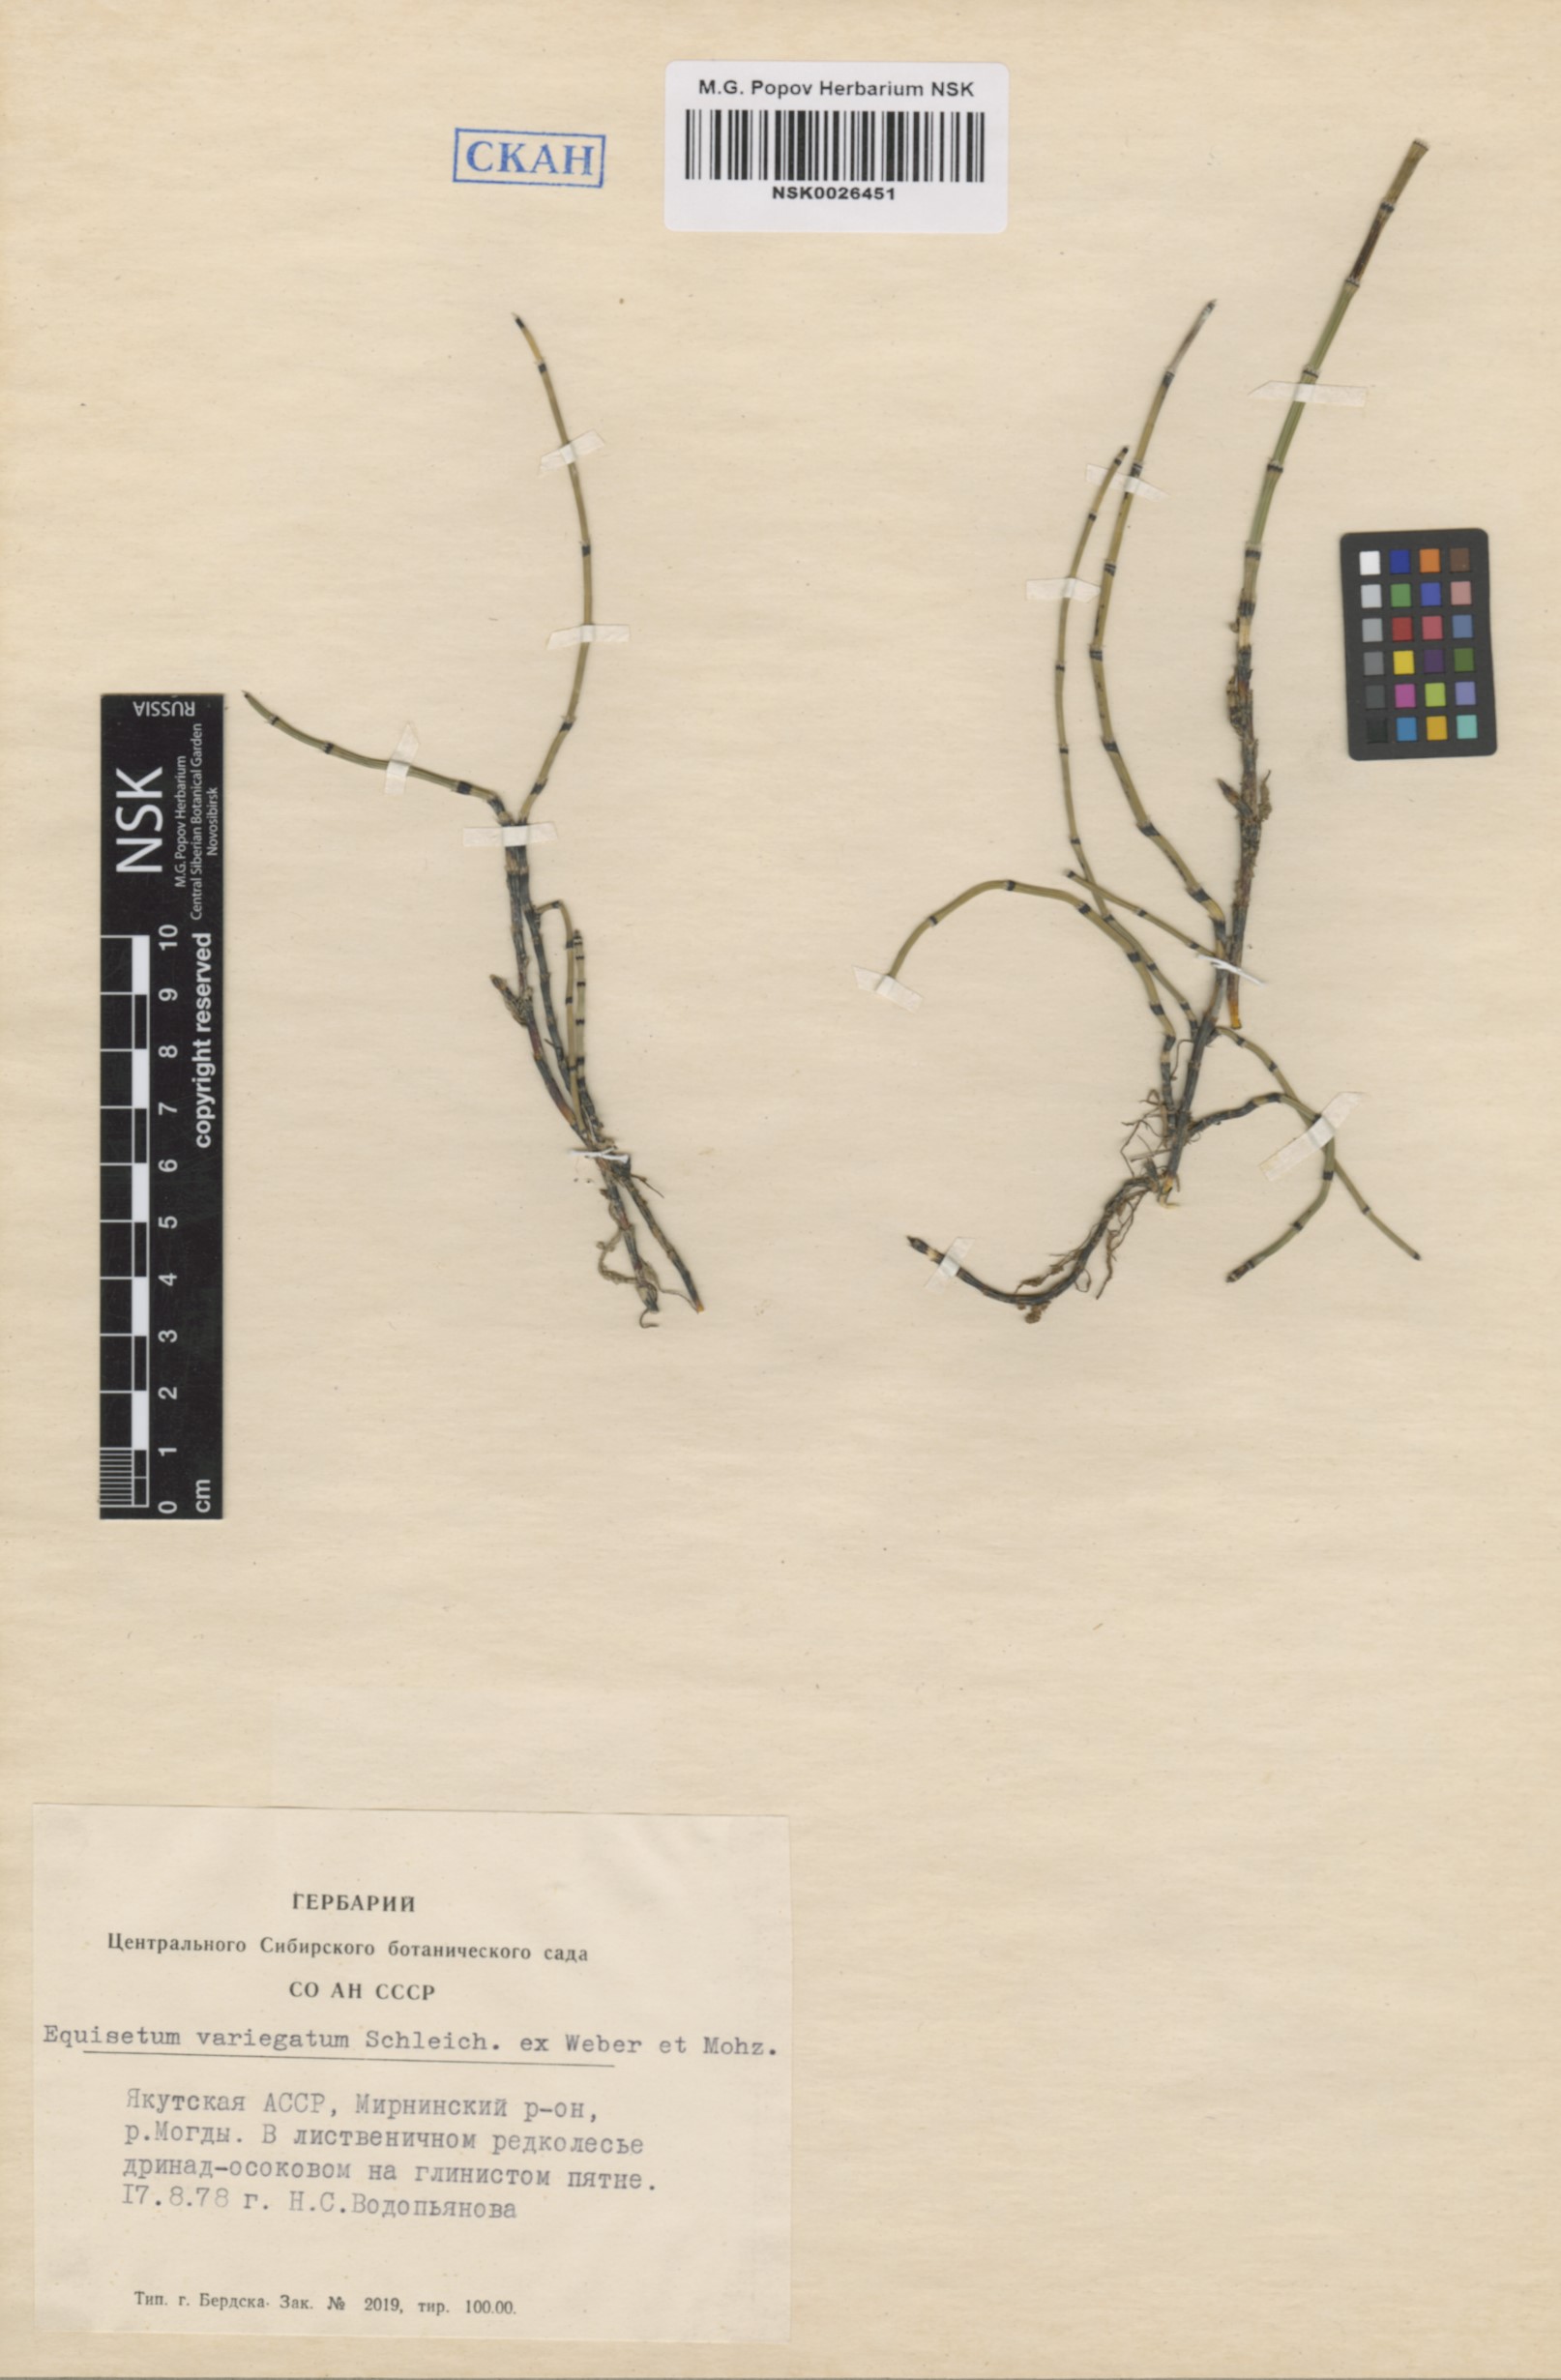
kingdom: Plantae
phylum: Tracheophyta
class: Polypodiopsida
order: Equisetales
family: Equisetaceae
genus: Equisetum
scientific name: Equisetum variegatum
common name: Variegated horsetail
